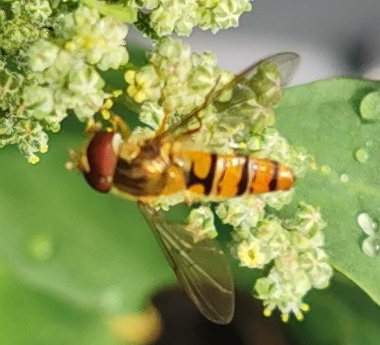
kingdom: Animalia
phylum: Arthropoda
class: Insecta
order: Diptera
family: Syrphidae
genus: Episyrphus
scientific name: Episyrphus balteatus
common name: Dobbeltbåndet svirreflue
